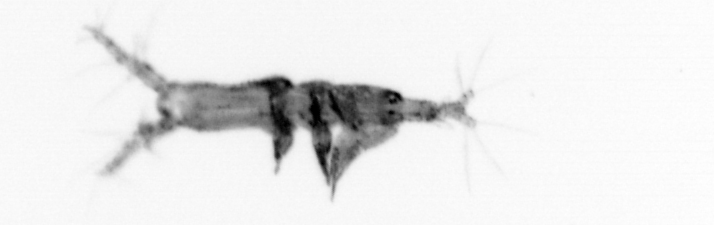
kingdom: Animalia
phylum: Arthropoda
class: Copepoda
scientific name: Copepoda
